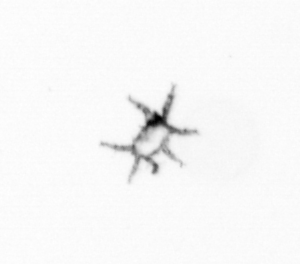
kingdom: Animalia
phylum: Arthropoda
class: Arachnida
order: Trombidiformes
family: Arrenuridae
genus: Hydracarina
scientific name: Hydracarina
